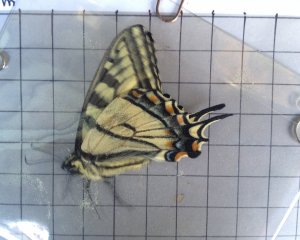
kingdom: Animalia
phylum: Arthropoda
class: Insecta
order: Lepidoptera
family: Papilionidae
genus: Pterourus
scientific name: Pterourus canadensis
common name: Canadian Tiger Swallowtail
